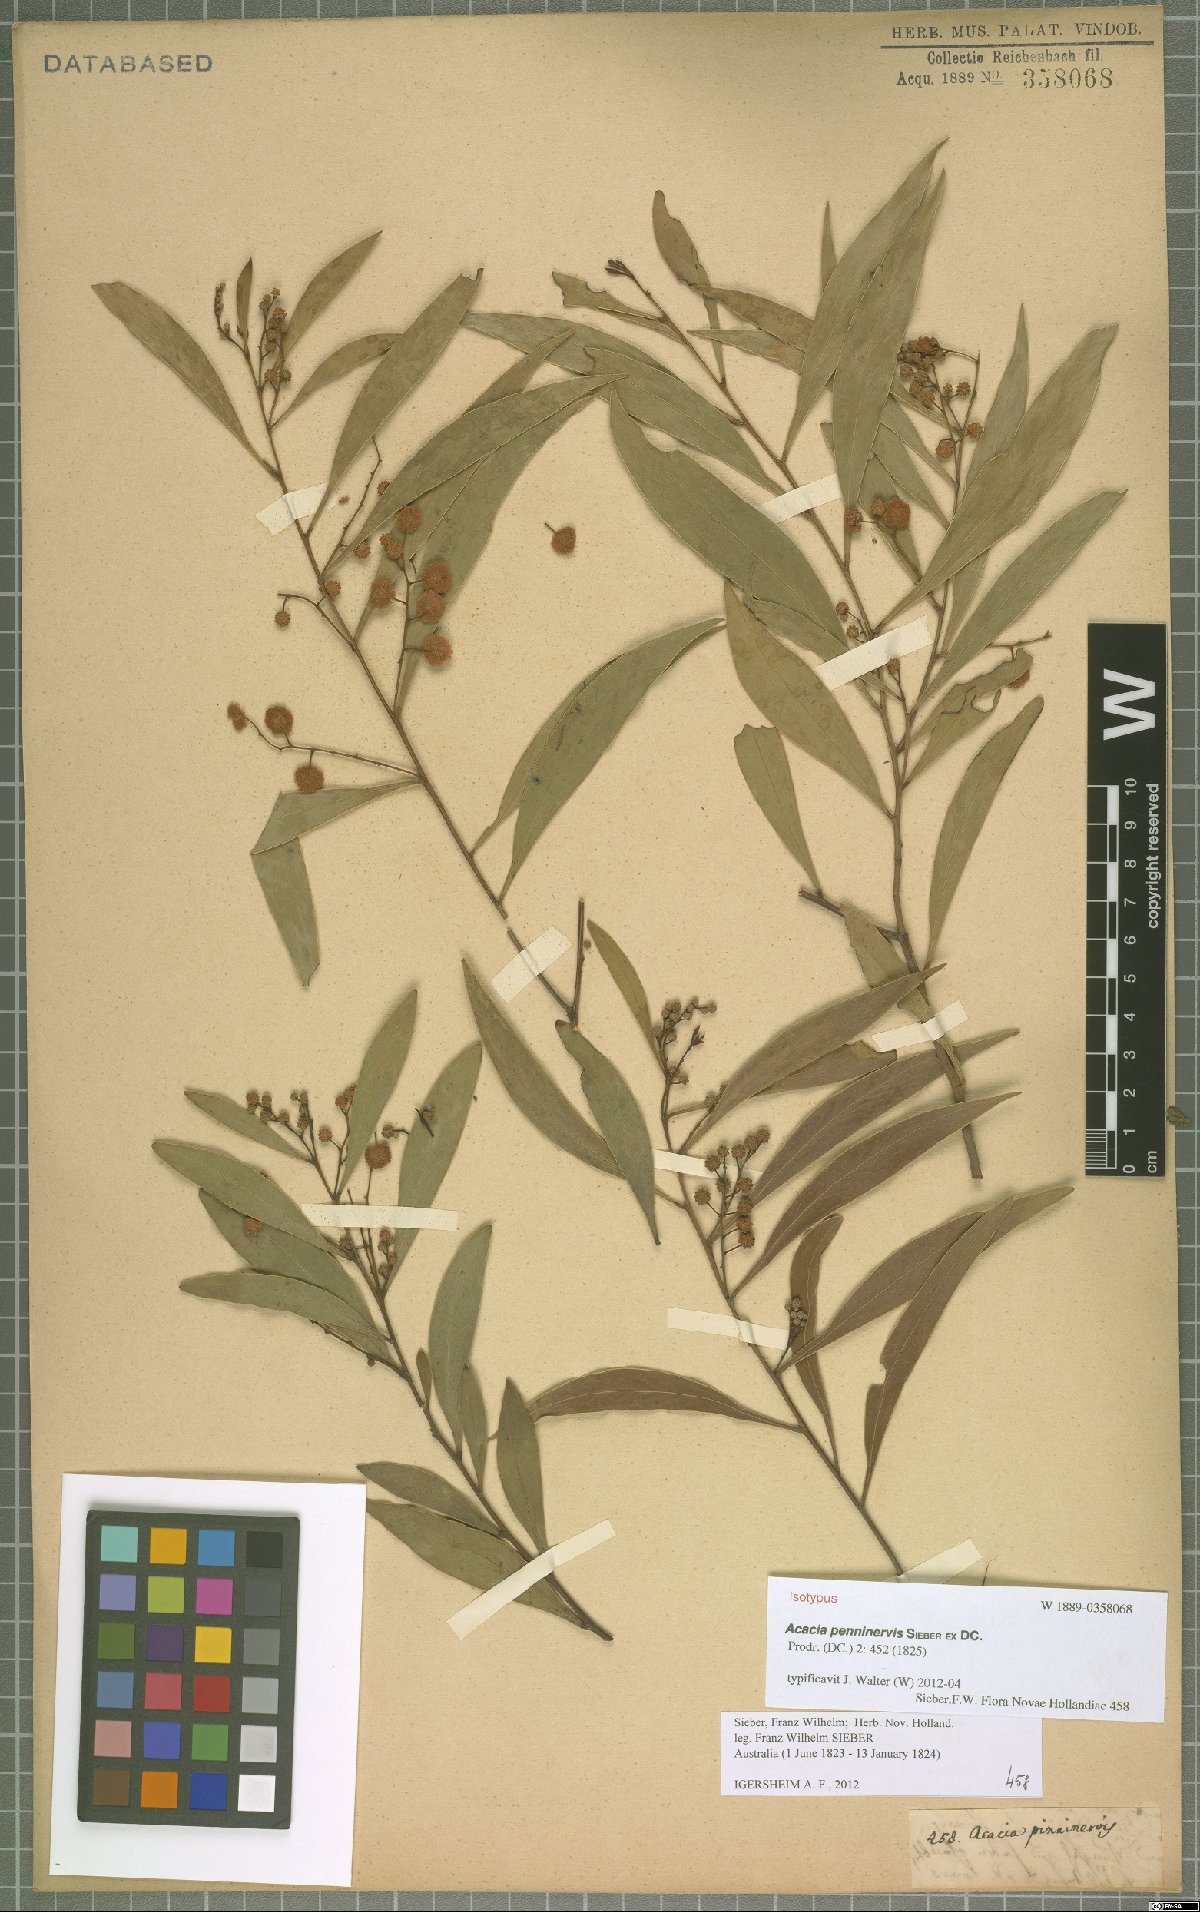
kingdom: Plantae
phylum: Tracheophyta
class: Magnoliopsida
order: Fabales
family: Fabaceae
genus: Acacia
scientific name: Acacia penninervis
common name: Hickory wattle
